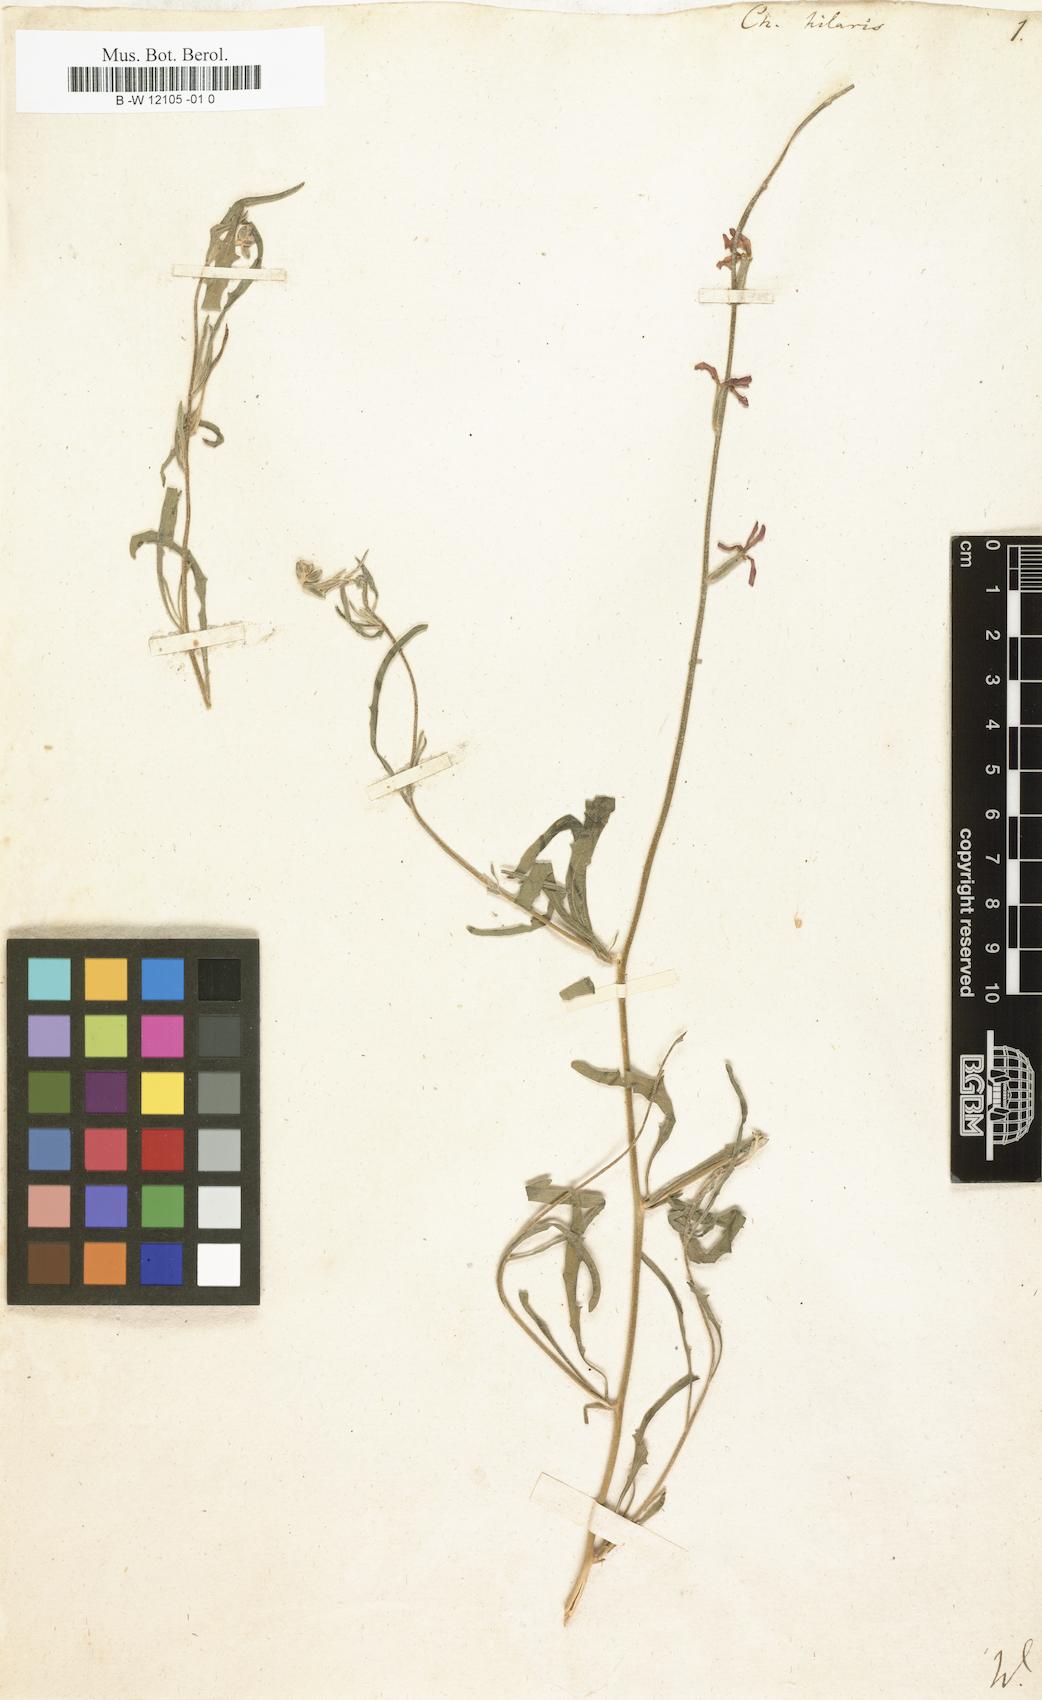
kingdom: Plantae
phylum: Tracheophyta
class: Magnoliopsida
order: Brassicales
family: Brassicaceae
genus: Erysimum
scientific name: Erysimum
